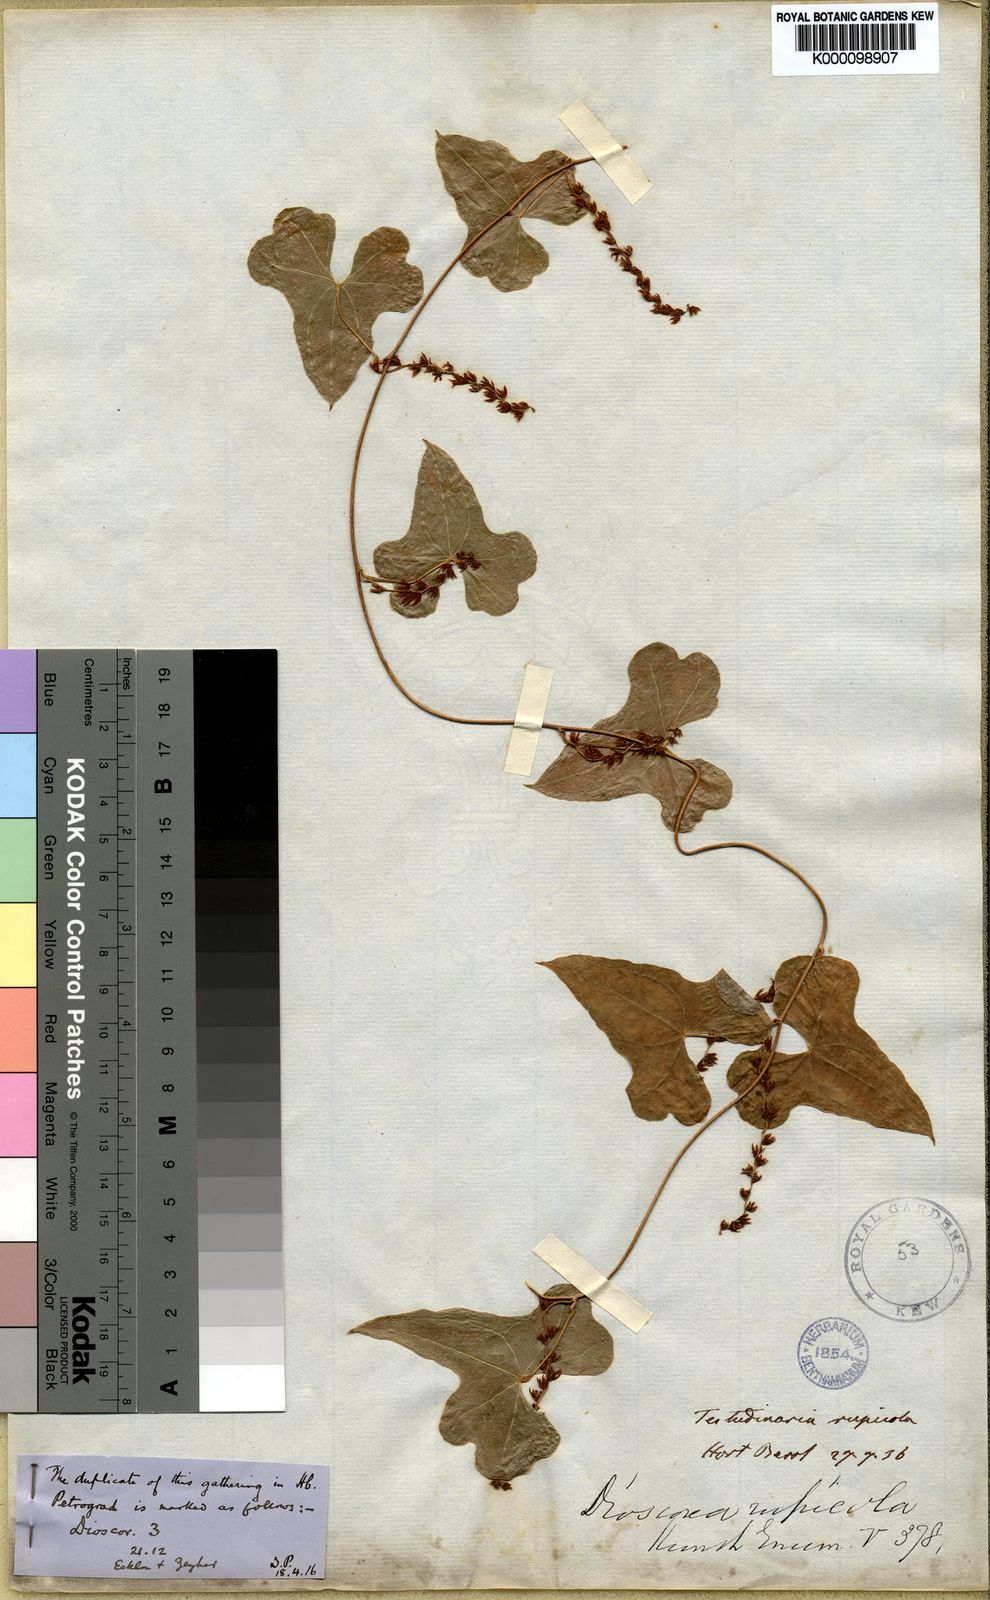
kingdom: Plantae
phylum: Tracheophyta
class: Liliopsida
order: Dioscoreales
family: Dioscoreaceae
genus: Dioscorea
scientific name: Dioscorea rupicola
